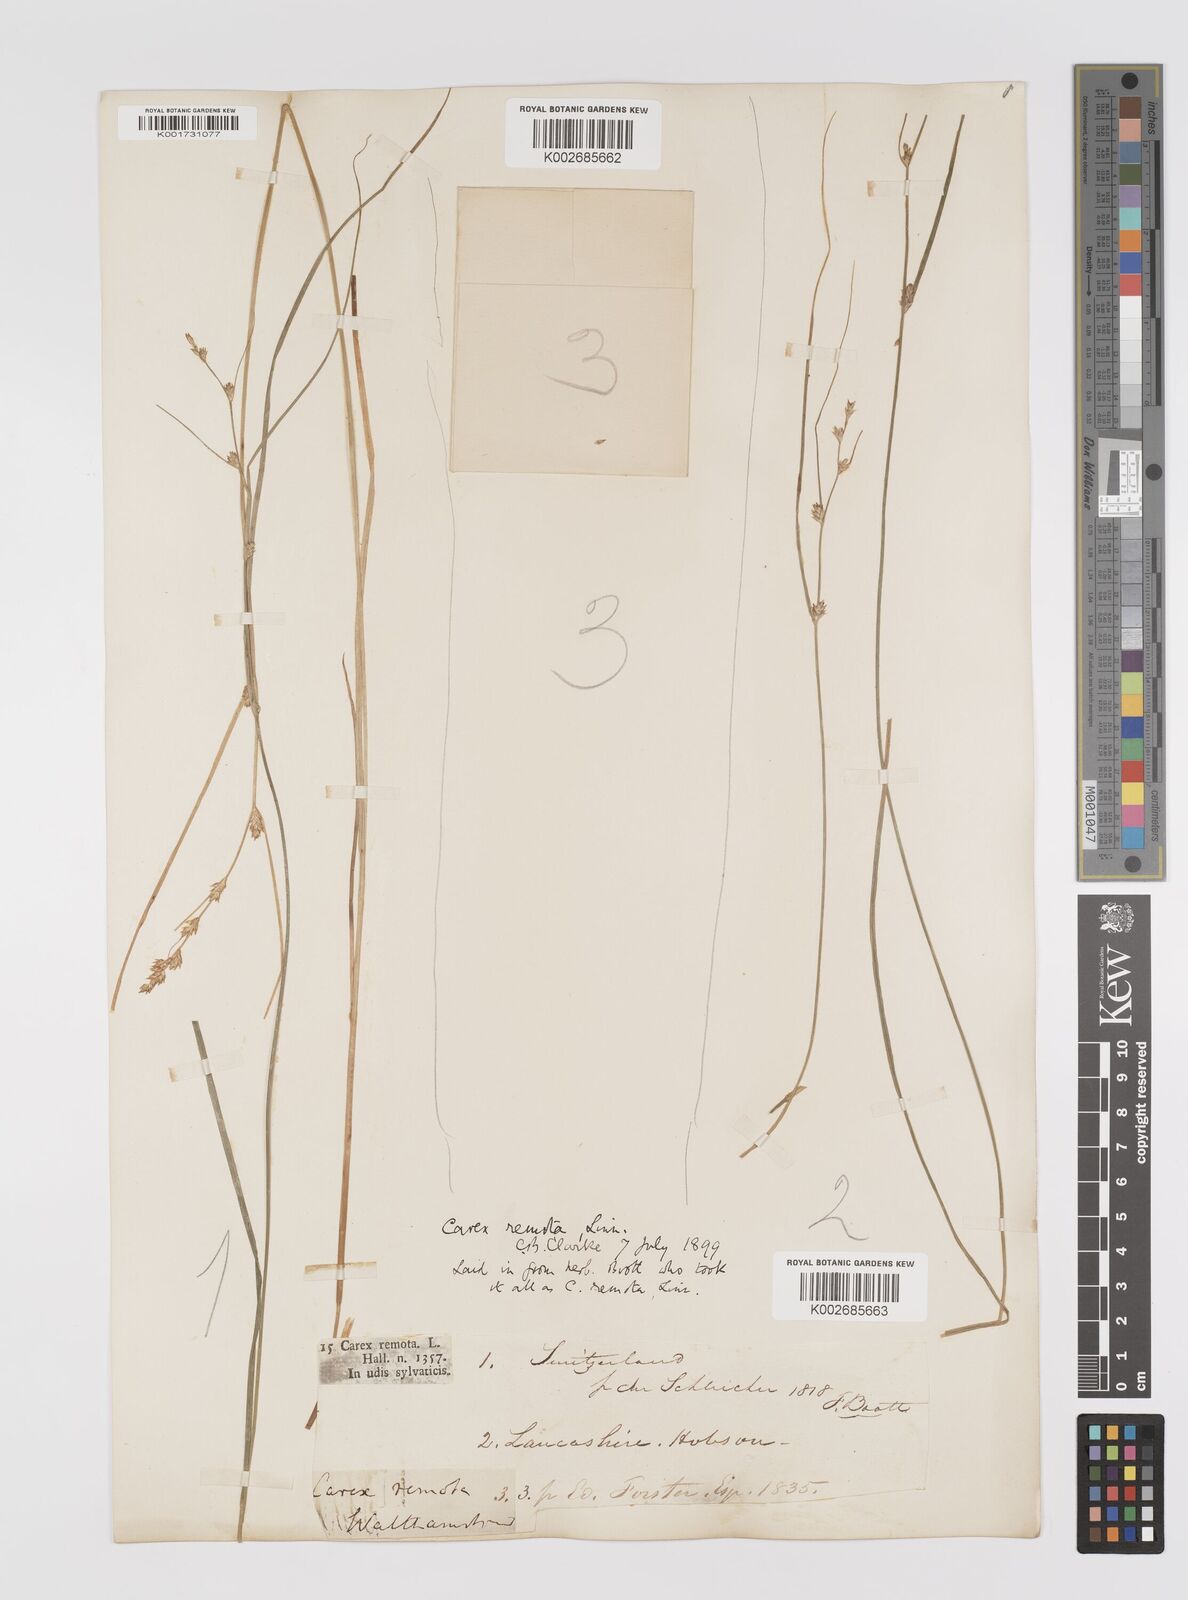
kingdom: Plantae
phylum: Tracheophyta
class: Liliopsida
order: Poales
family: Cyperaceae
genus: Carex
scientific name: Carex remota
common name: Remote sedge
